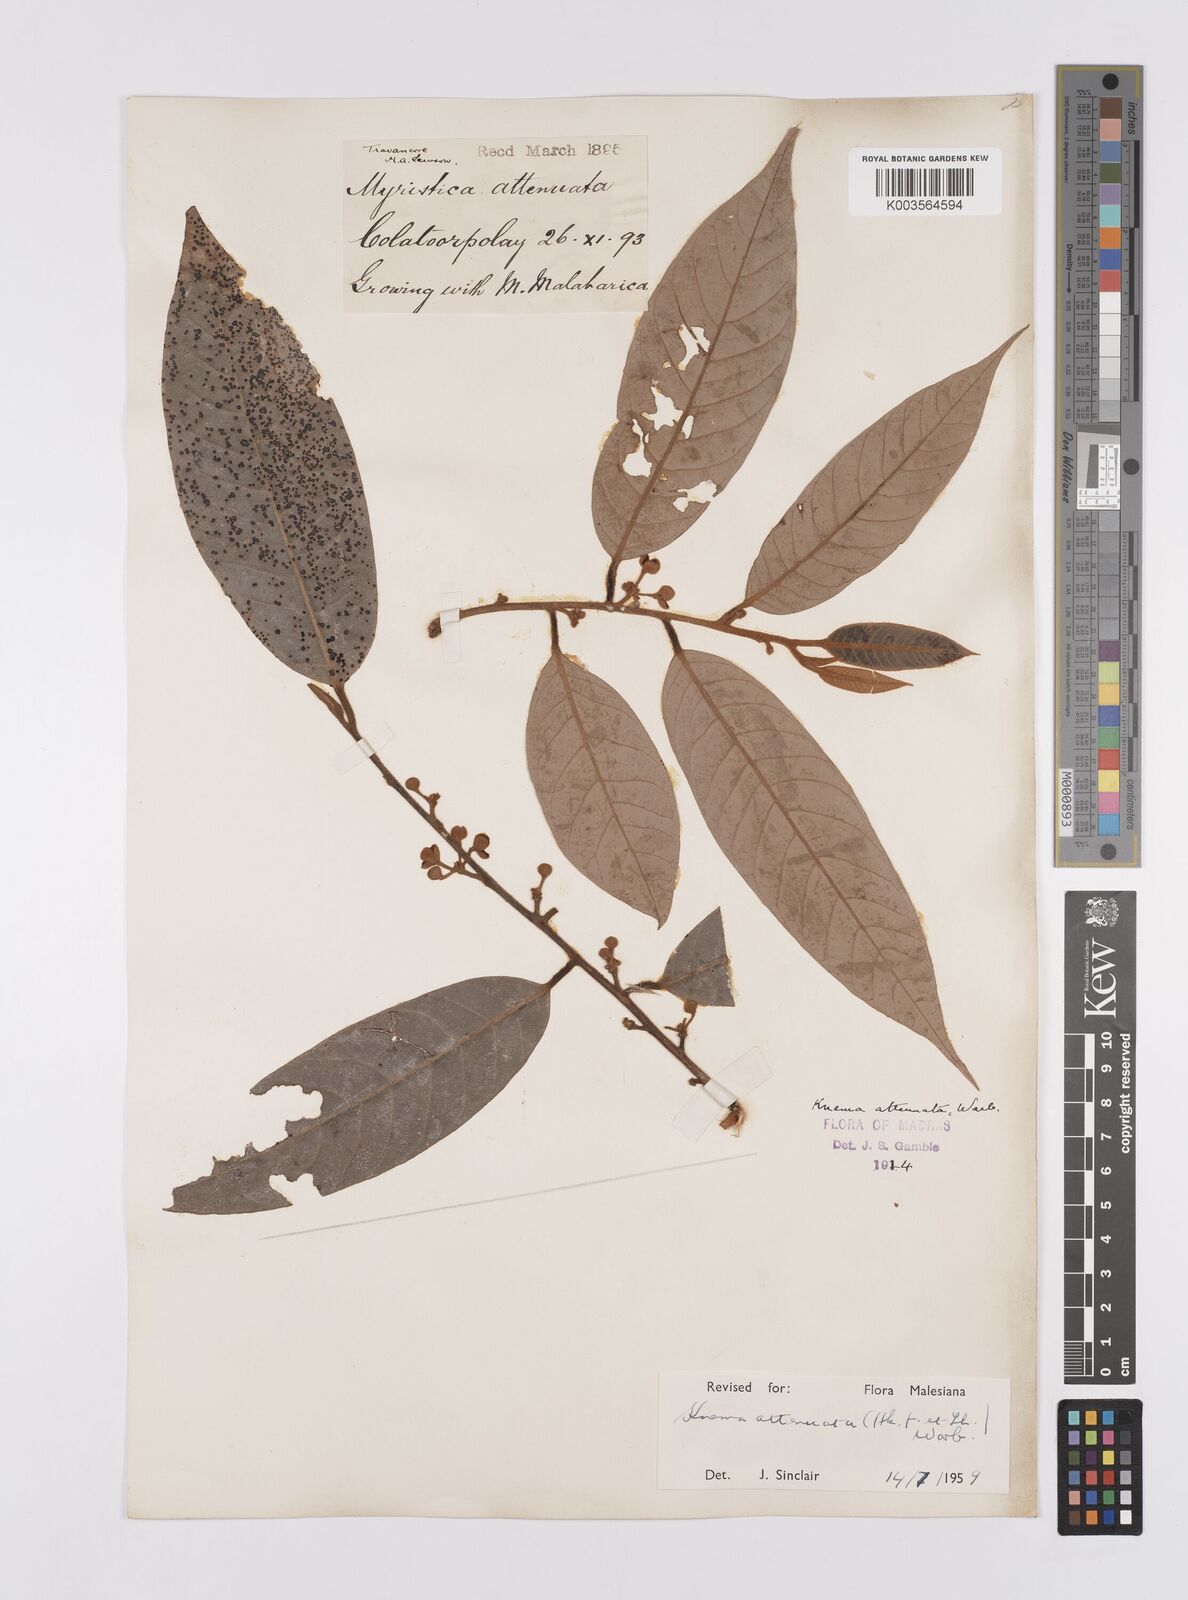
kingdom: Plantae
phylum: Tracheophyta
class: Magnoliopsida
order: Magnoliales
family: Myristicaceae
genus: Knema
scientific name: Knema attenuata
